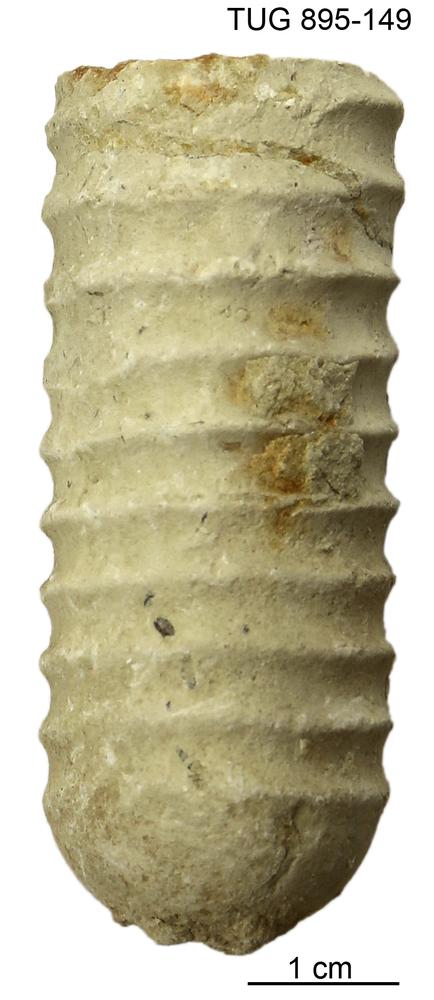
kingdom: Animalia
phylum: Mollusca
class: Cephalopoda
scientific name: Cephalopoda
